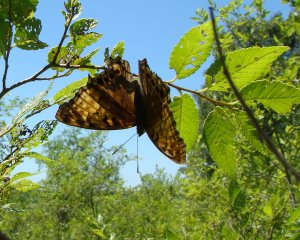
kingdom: Animalia
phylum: Arthropoda
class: Insecta
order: Lepidoptera
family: Nymphalidae
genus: Asterocampa
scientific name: Asterocampa clyton
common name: Tawny Emperor
